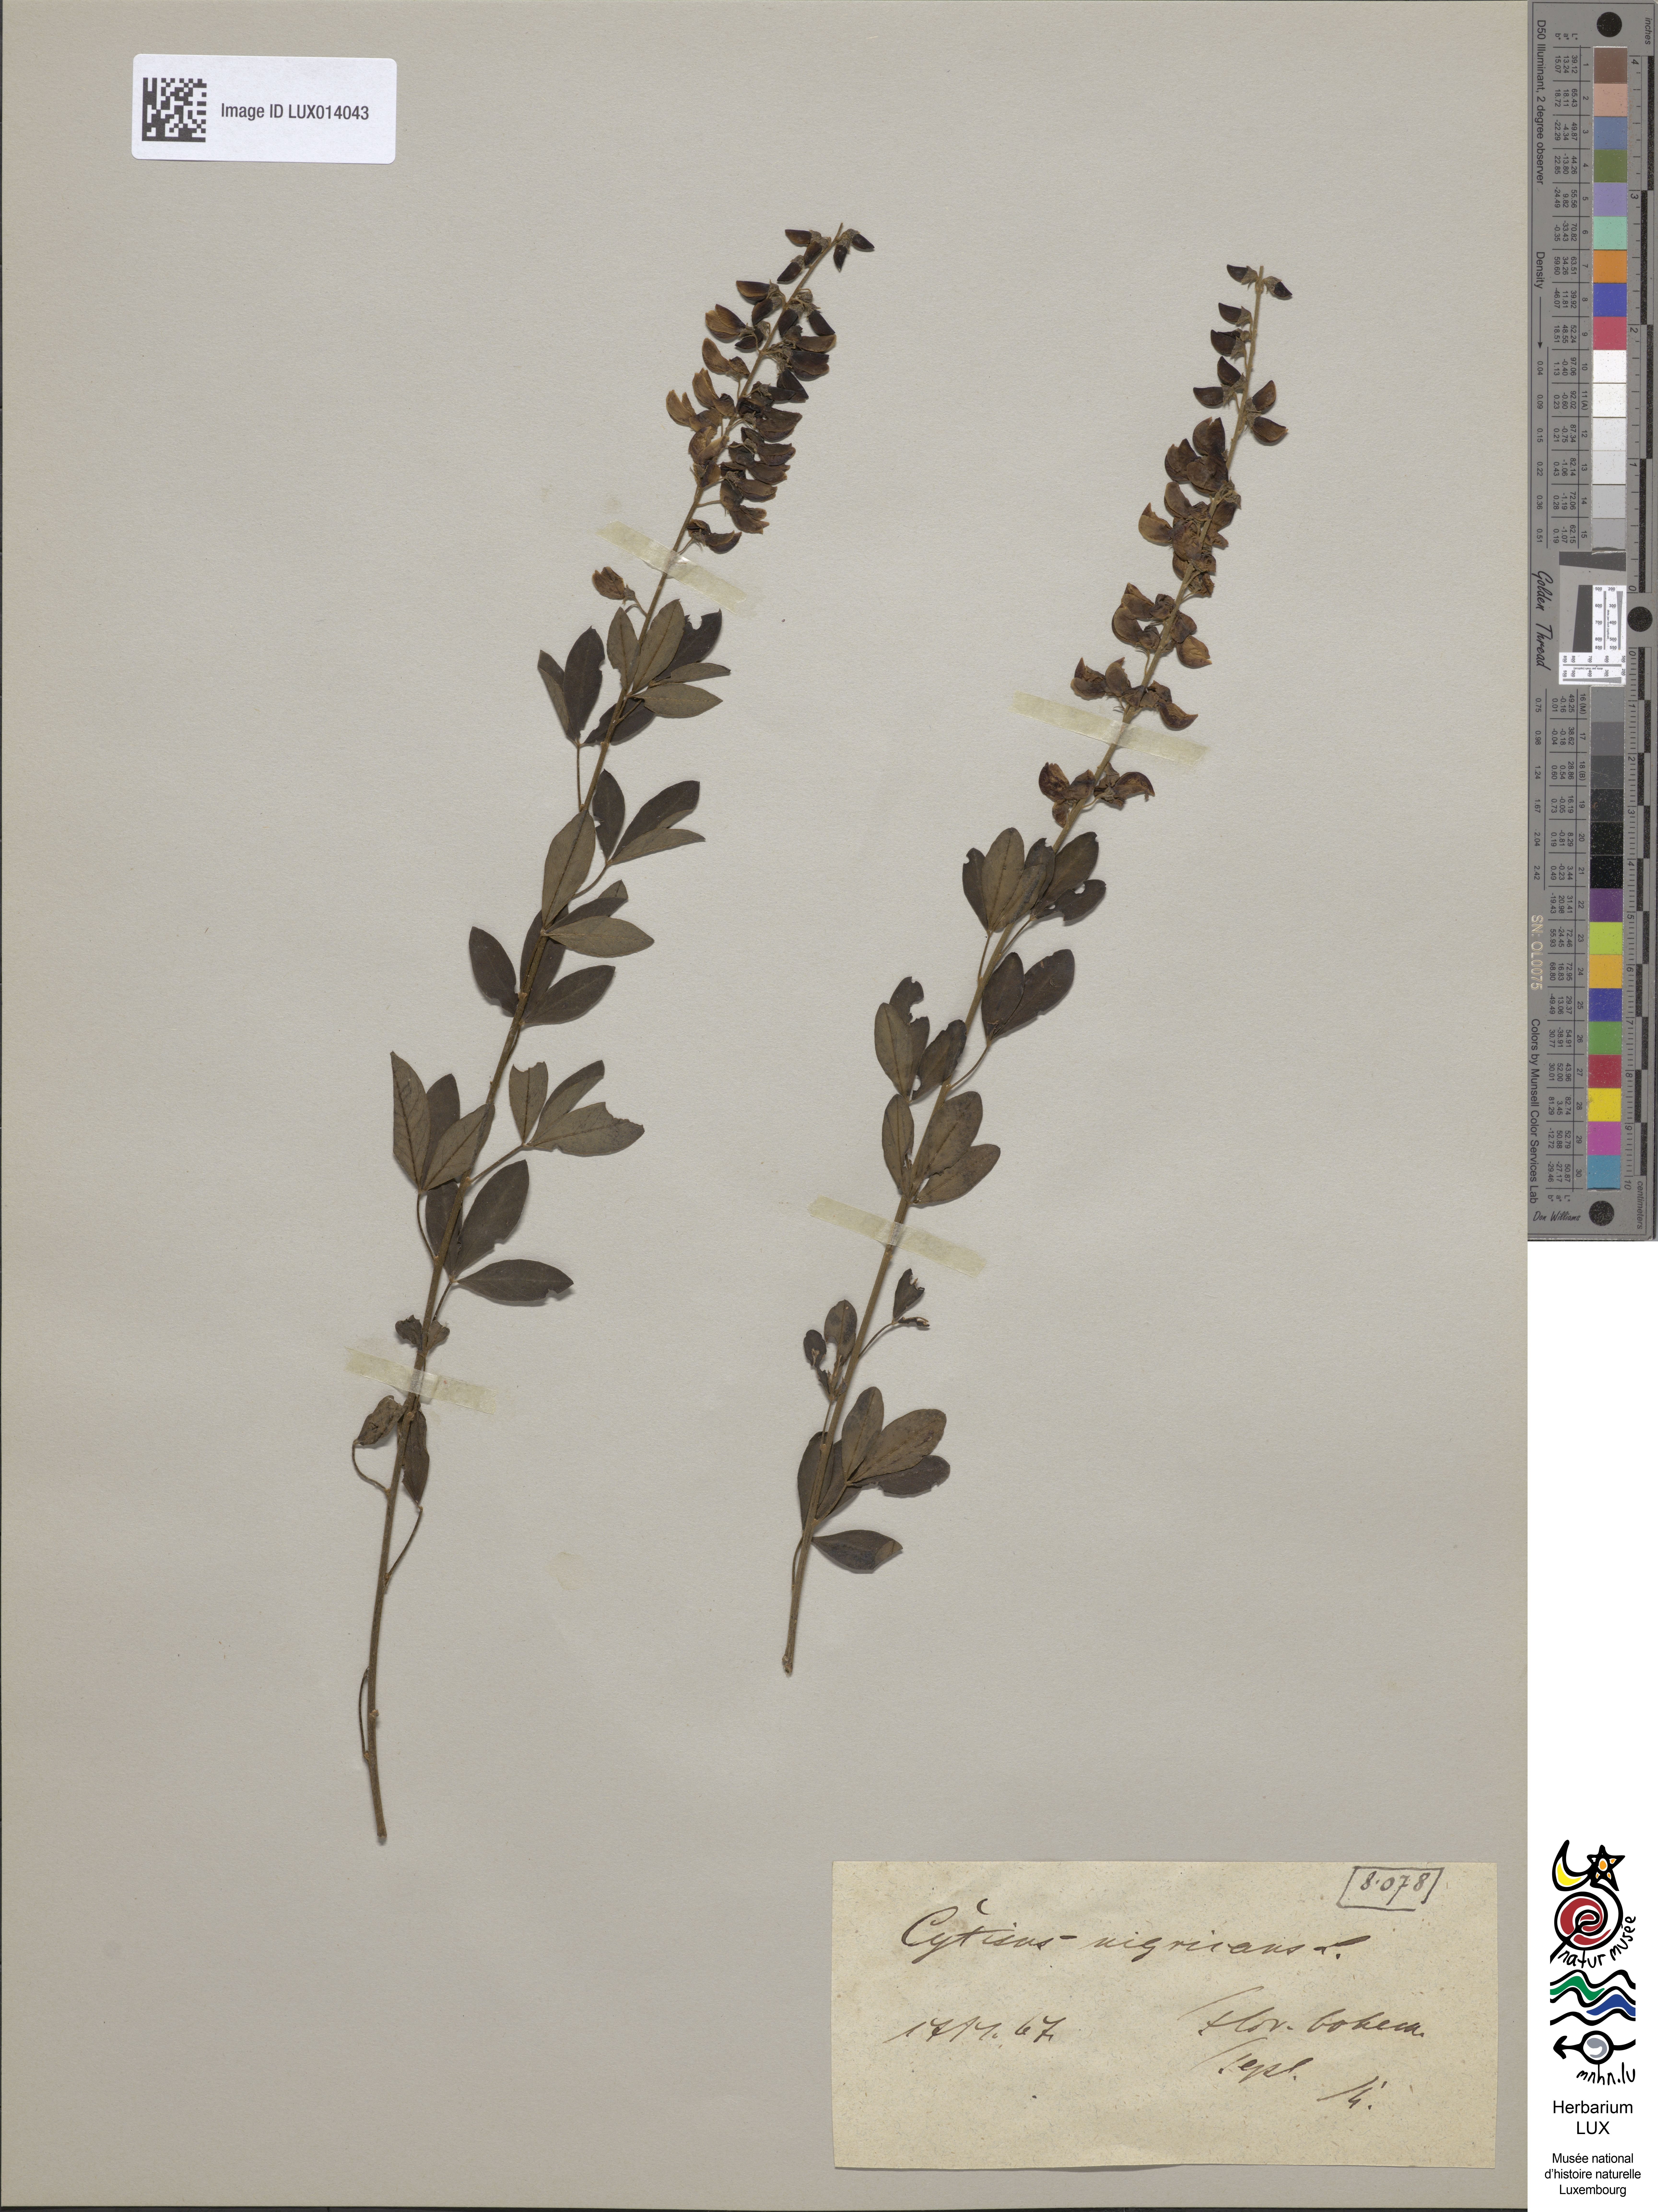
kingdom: Plantae
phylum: Tracheophyta
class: Magnoliopsida
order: Fabales
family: Fabaceae
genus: Cytisus
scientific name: Cytisus nigricans
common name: Black broom
